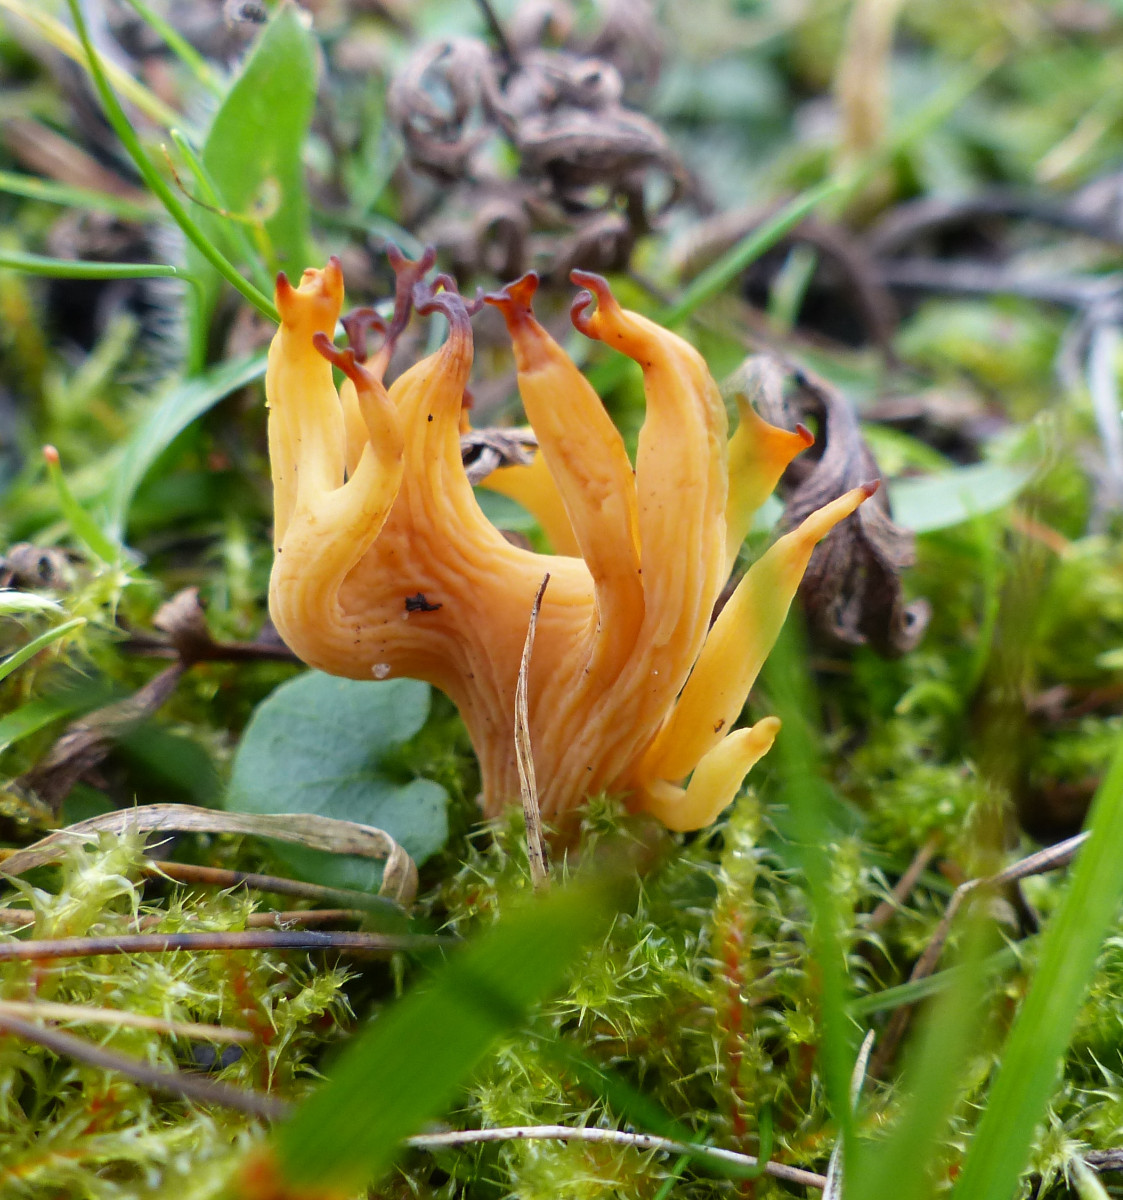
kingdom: Fungi
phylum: Basidiomycota
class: Agaricomycetes
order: Agaricales
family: Clavariaceae
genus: Clavulinopsis
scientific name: Clavulinopsis corniculata
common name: eng-køllesvamp
